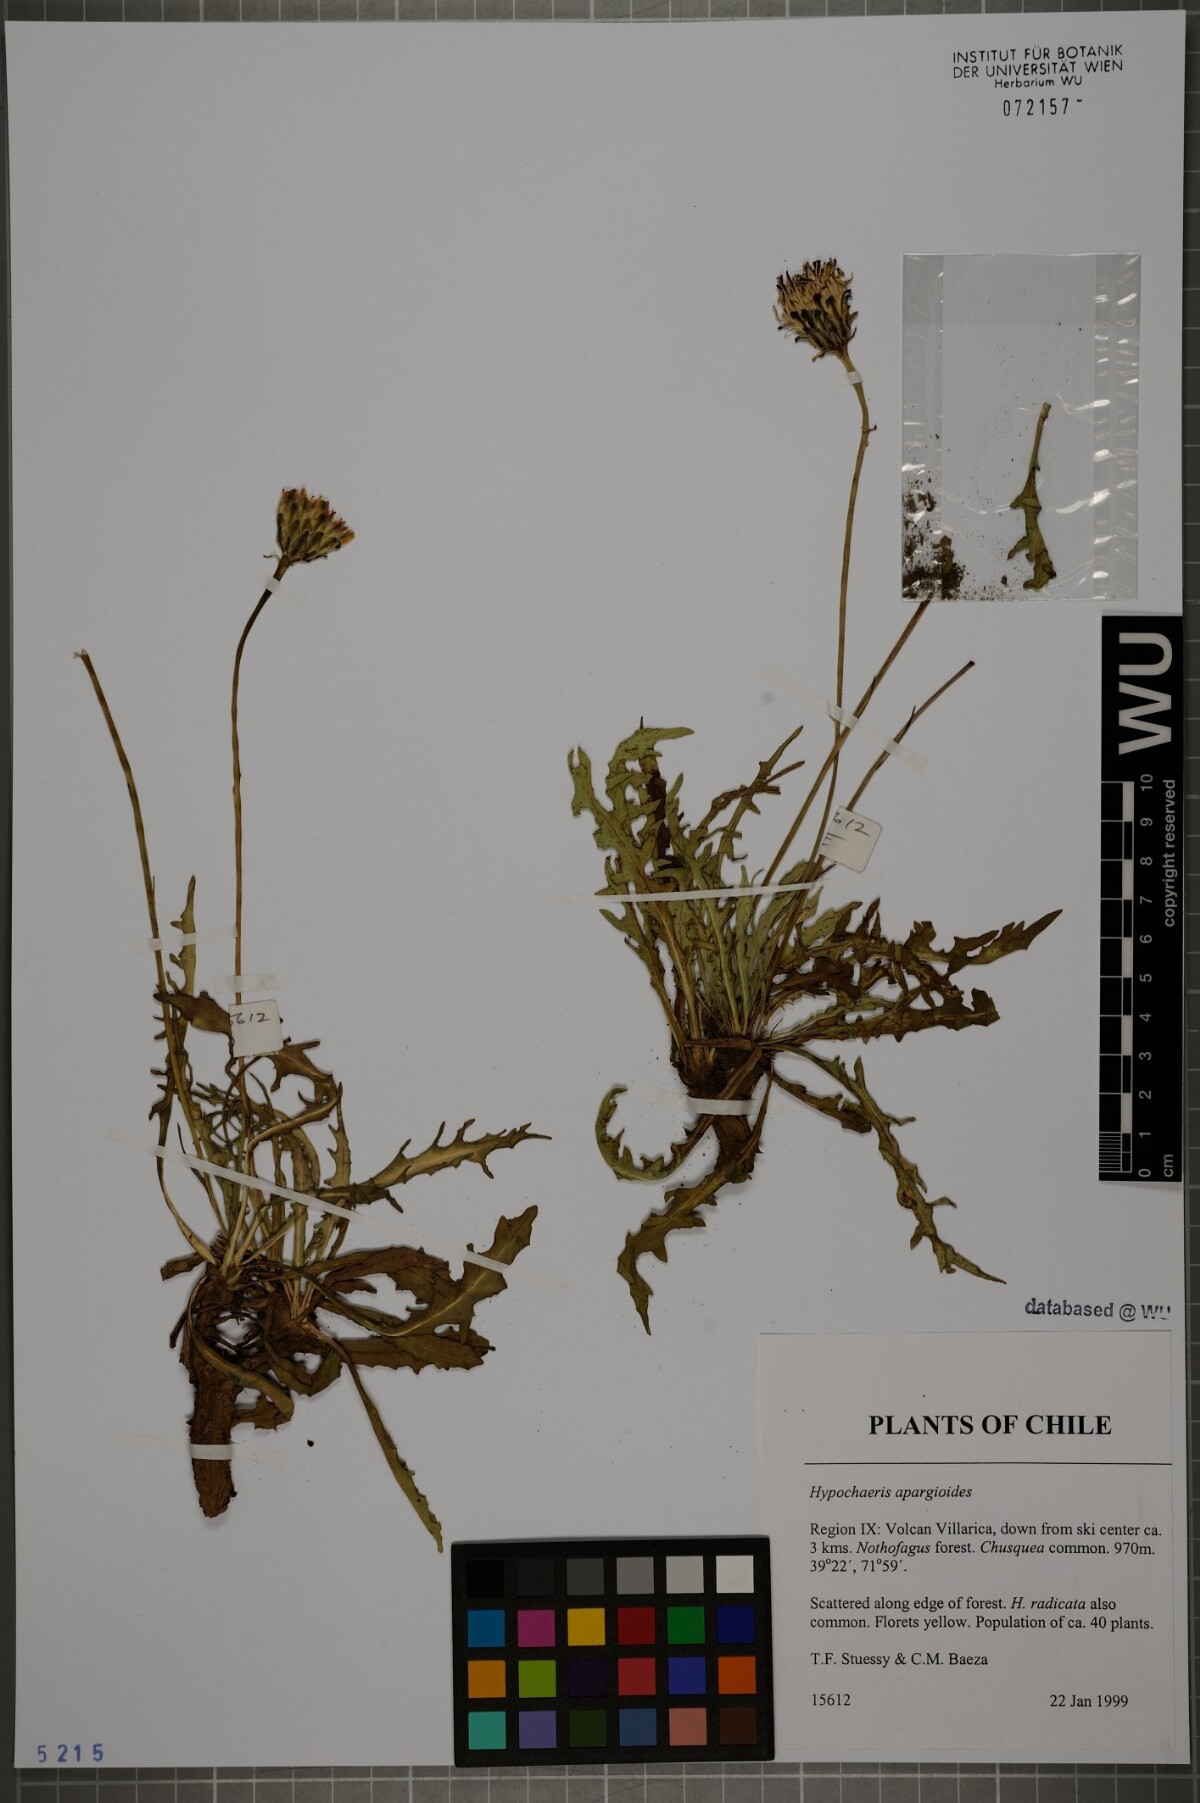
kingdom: Plantae
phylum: Tracheophyta
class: Magnoliopsida
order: Asterales
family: Asteraceae
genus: Hypochaeris
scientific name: Hypochaeris apargioides
